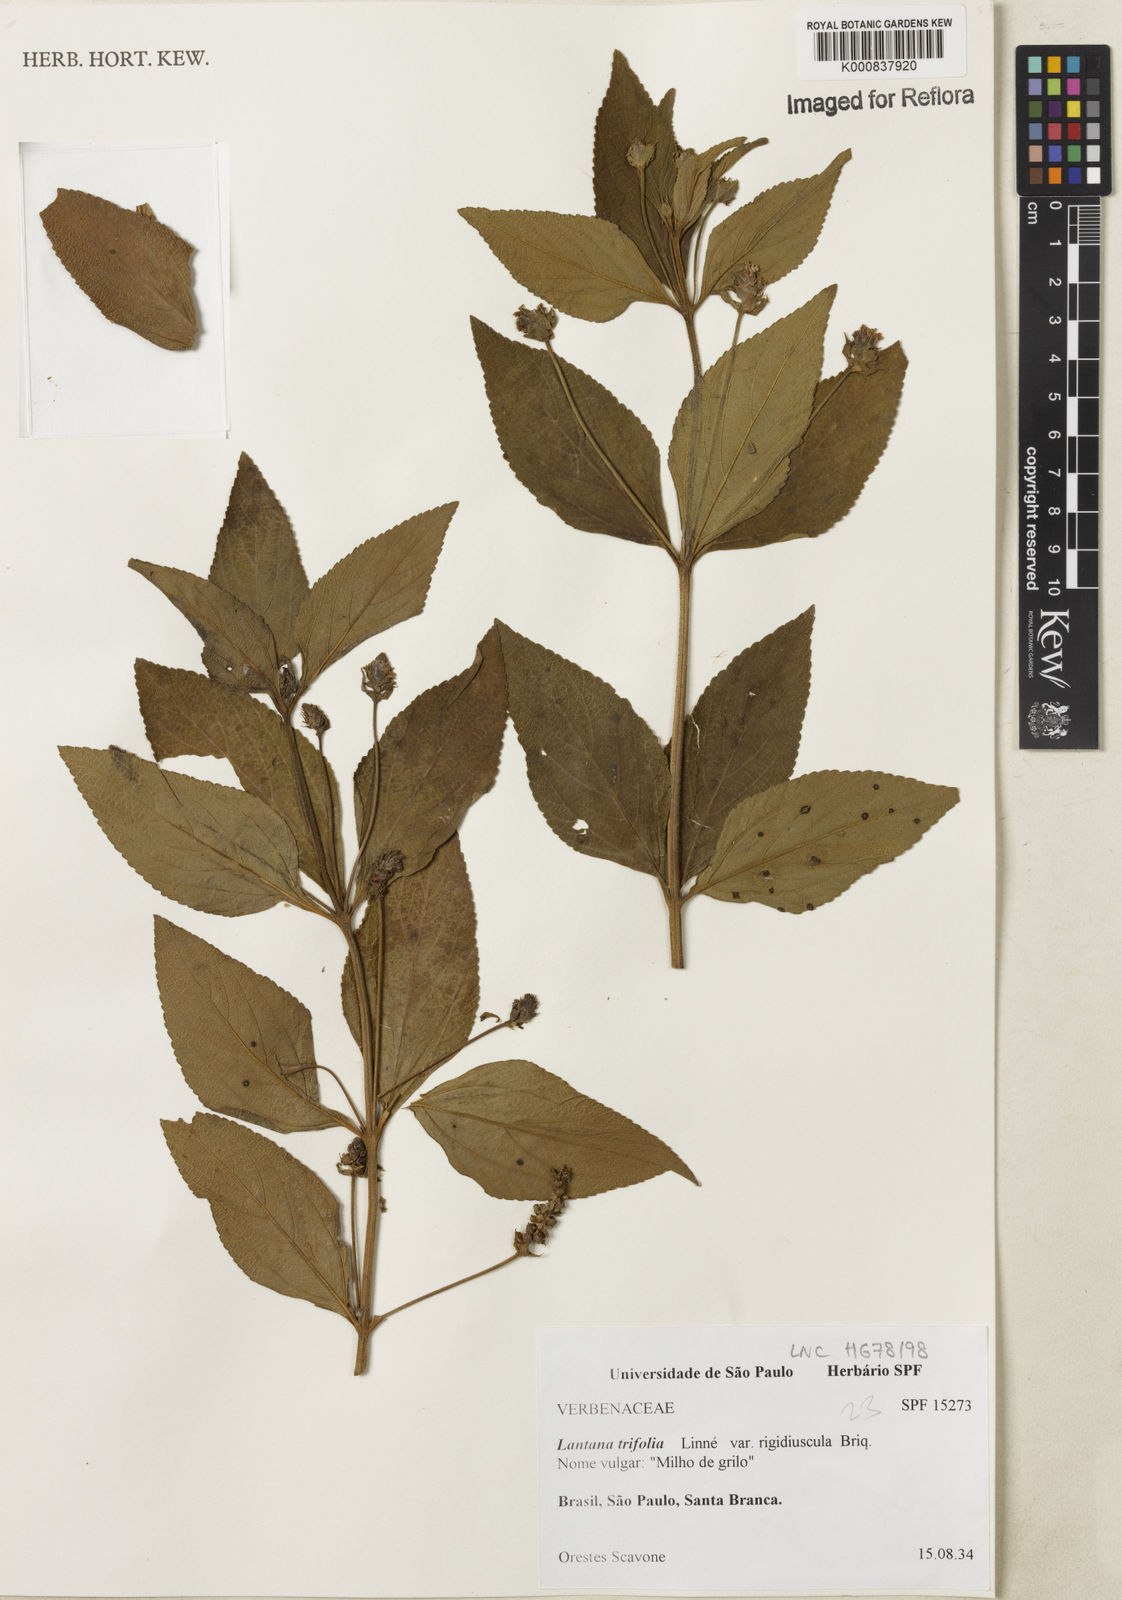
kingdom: Plantae
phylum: Tracheophyta
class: Magnoliopsida
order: Lamiales
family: Verbenaceae
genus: Lantana
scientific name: Lantana trifolia
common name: Sweet-sage
